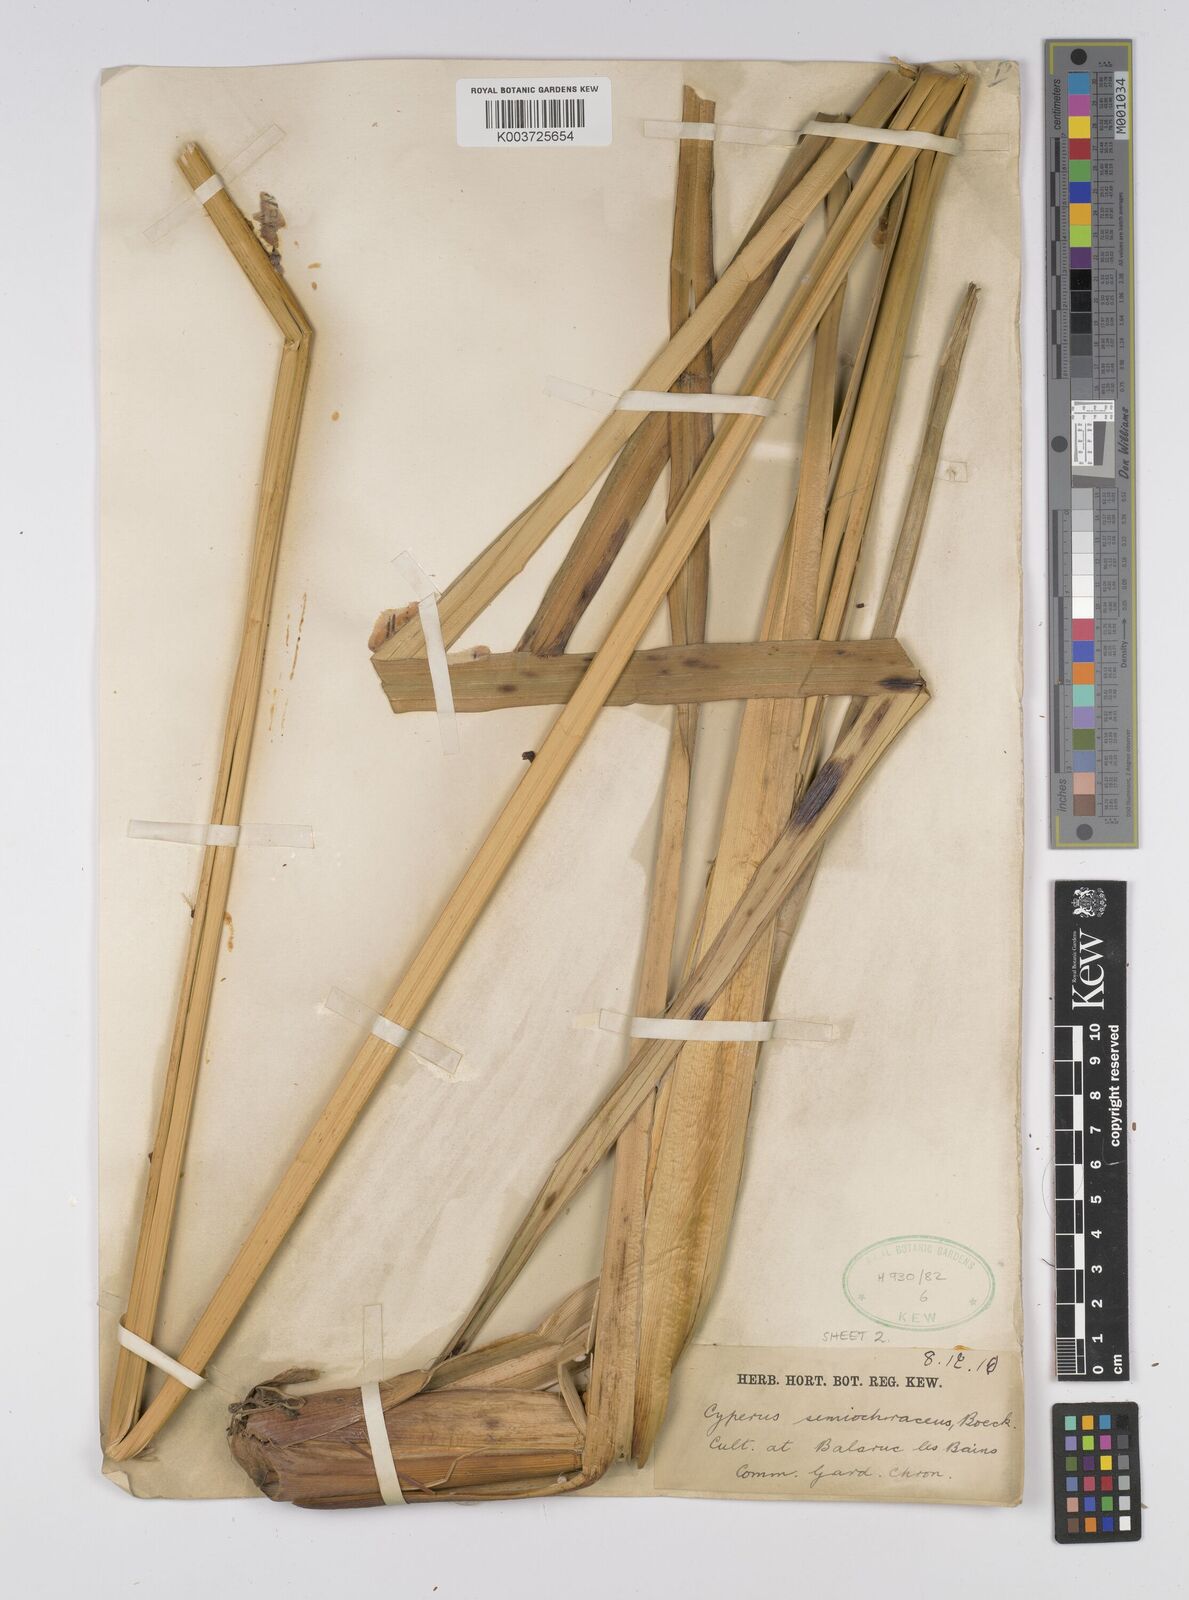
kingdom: Plantae
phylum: Tracheophyta
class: Liliopsida
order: Poales
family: Cyperaceae
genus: Cyperus
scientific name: Cyperus semiochraceus
